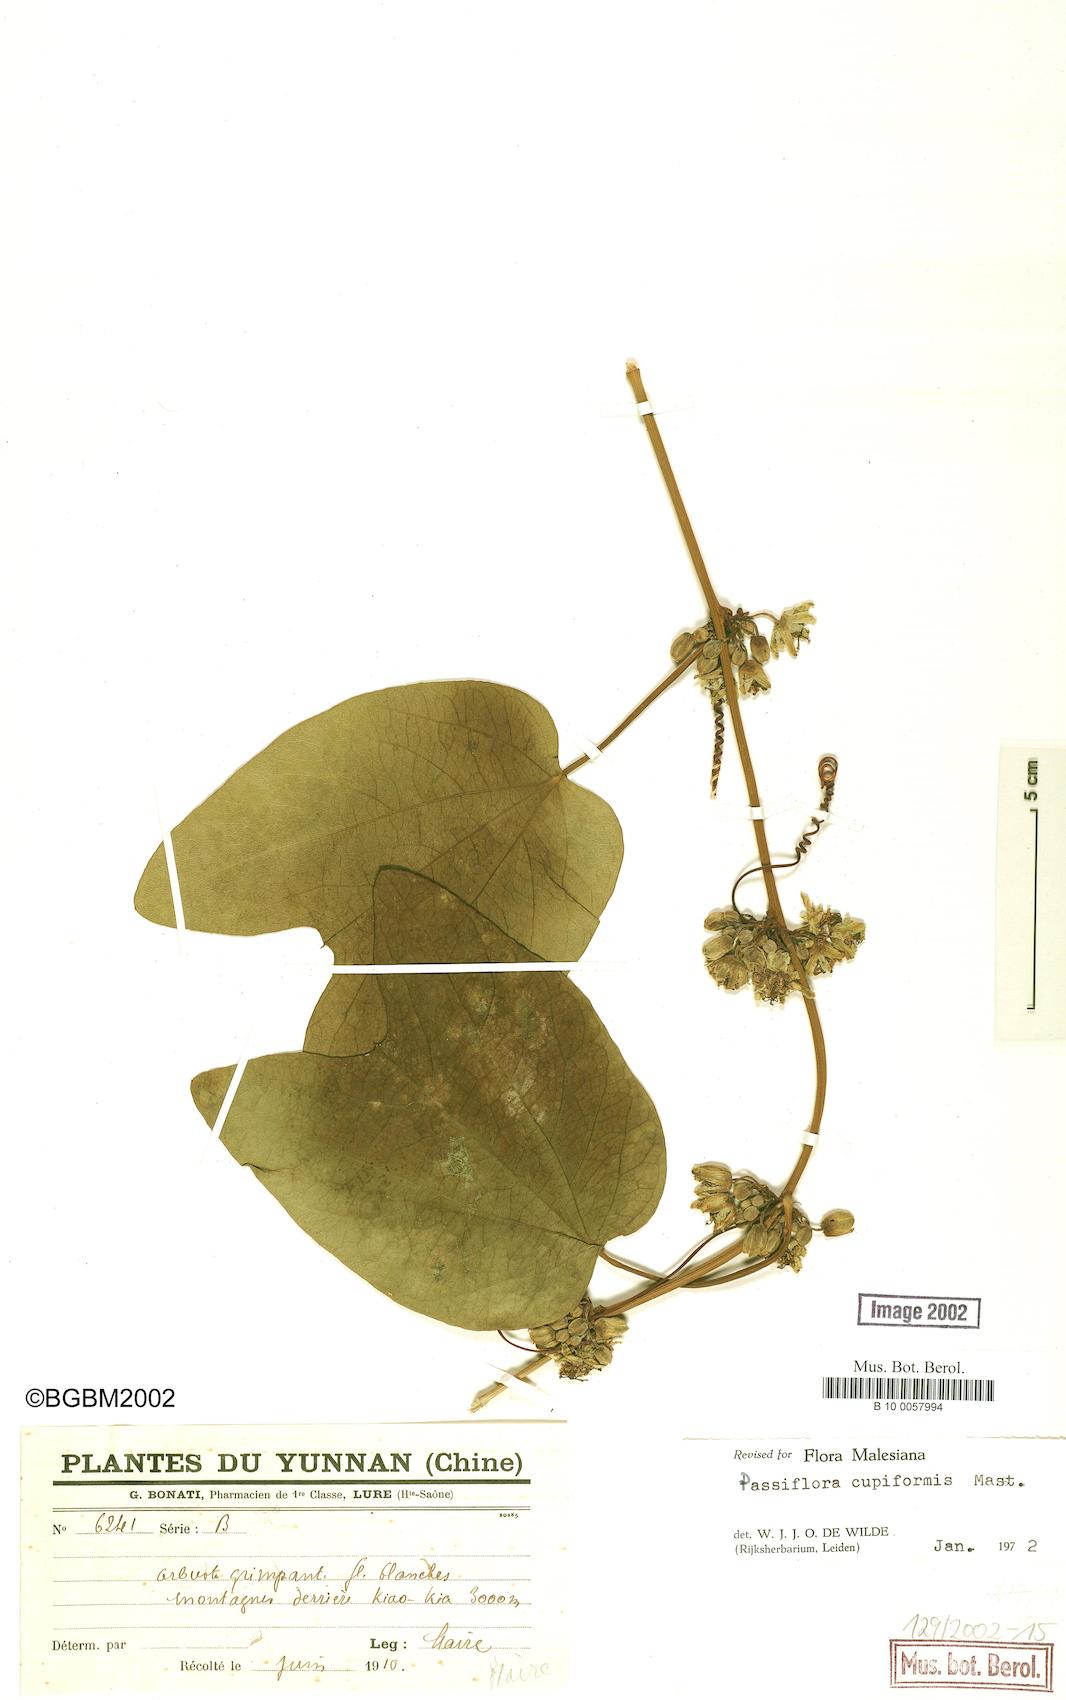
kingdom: Plantae
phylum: Tracheophyta
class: Magnoliopsida
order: Malpighiales
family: Passifloraceae
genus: Passiflora
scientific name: Passiflora cupiformis
